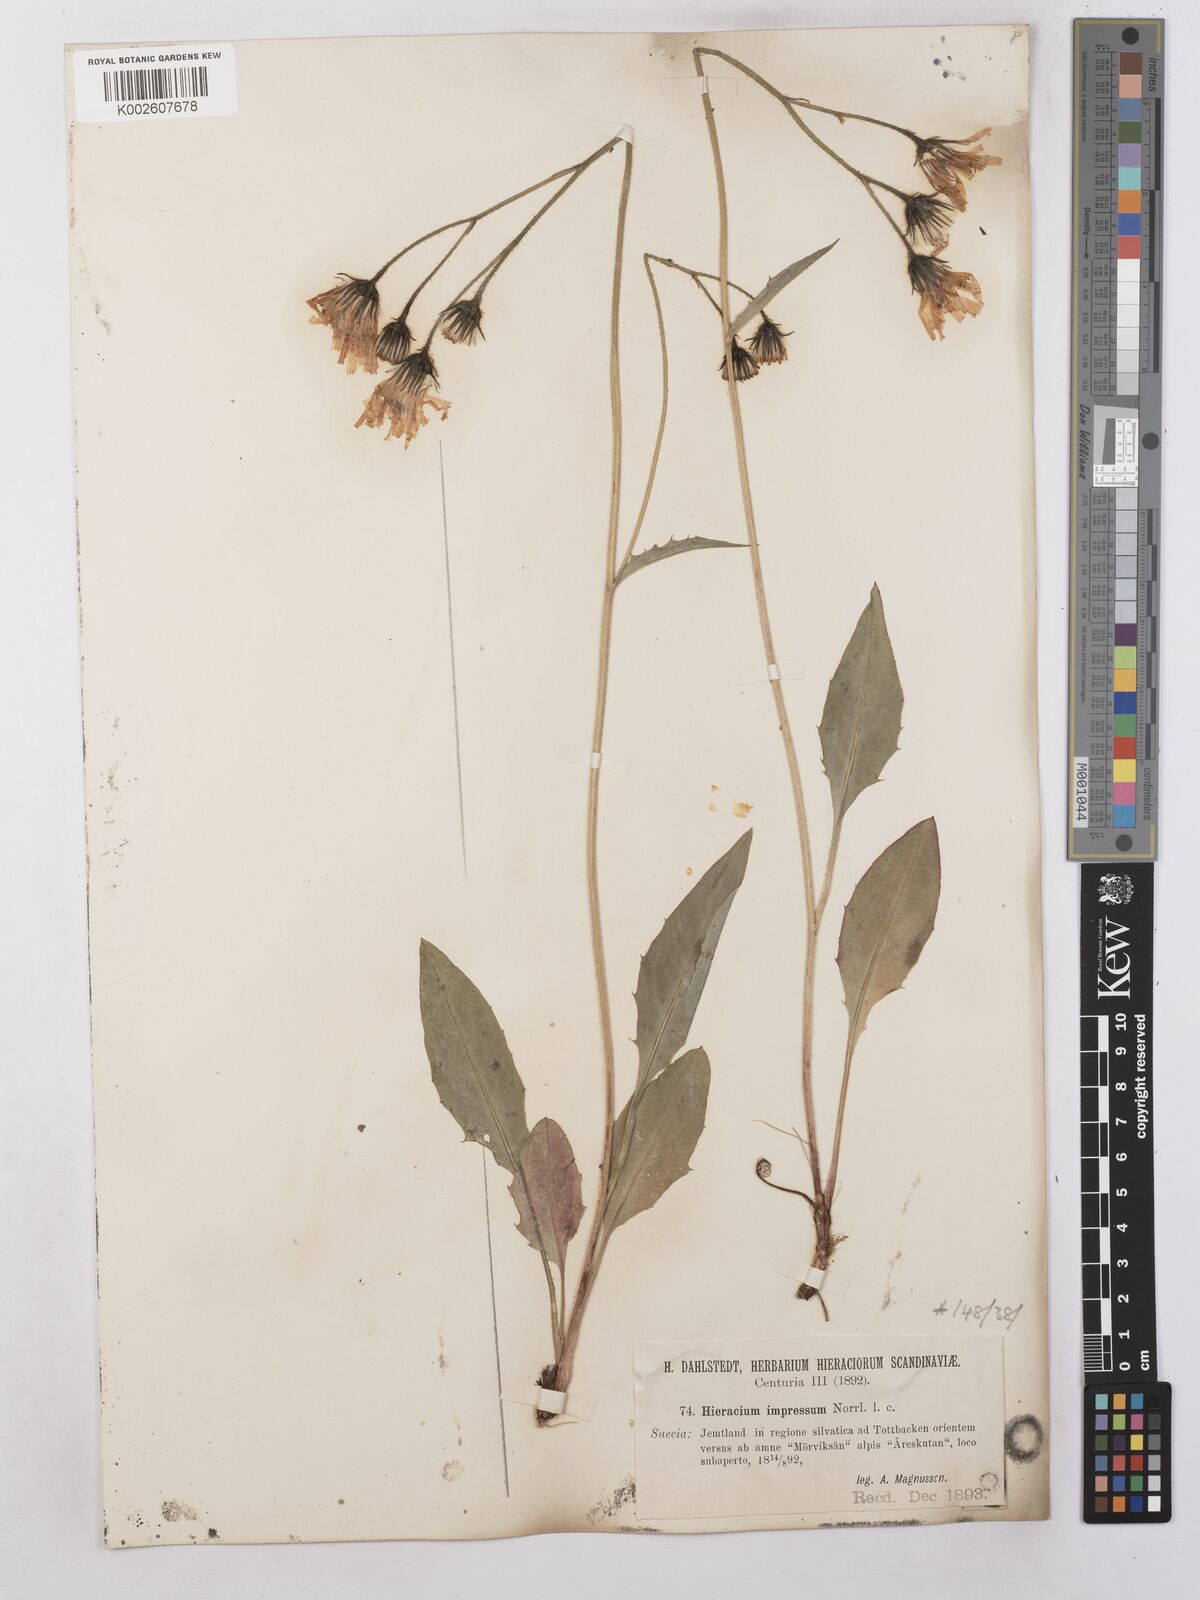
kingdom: Plantae
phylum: Tracheophyta
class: Magnoliopsida
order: Asterales
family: Asteraceae
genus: Hieracium
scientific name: Hieracium subramosum
